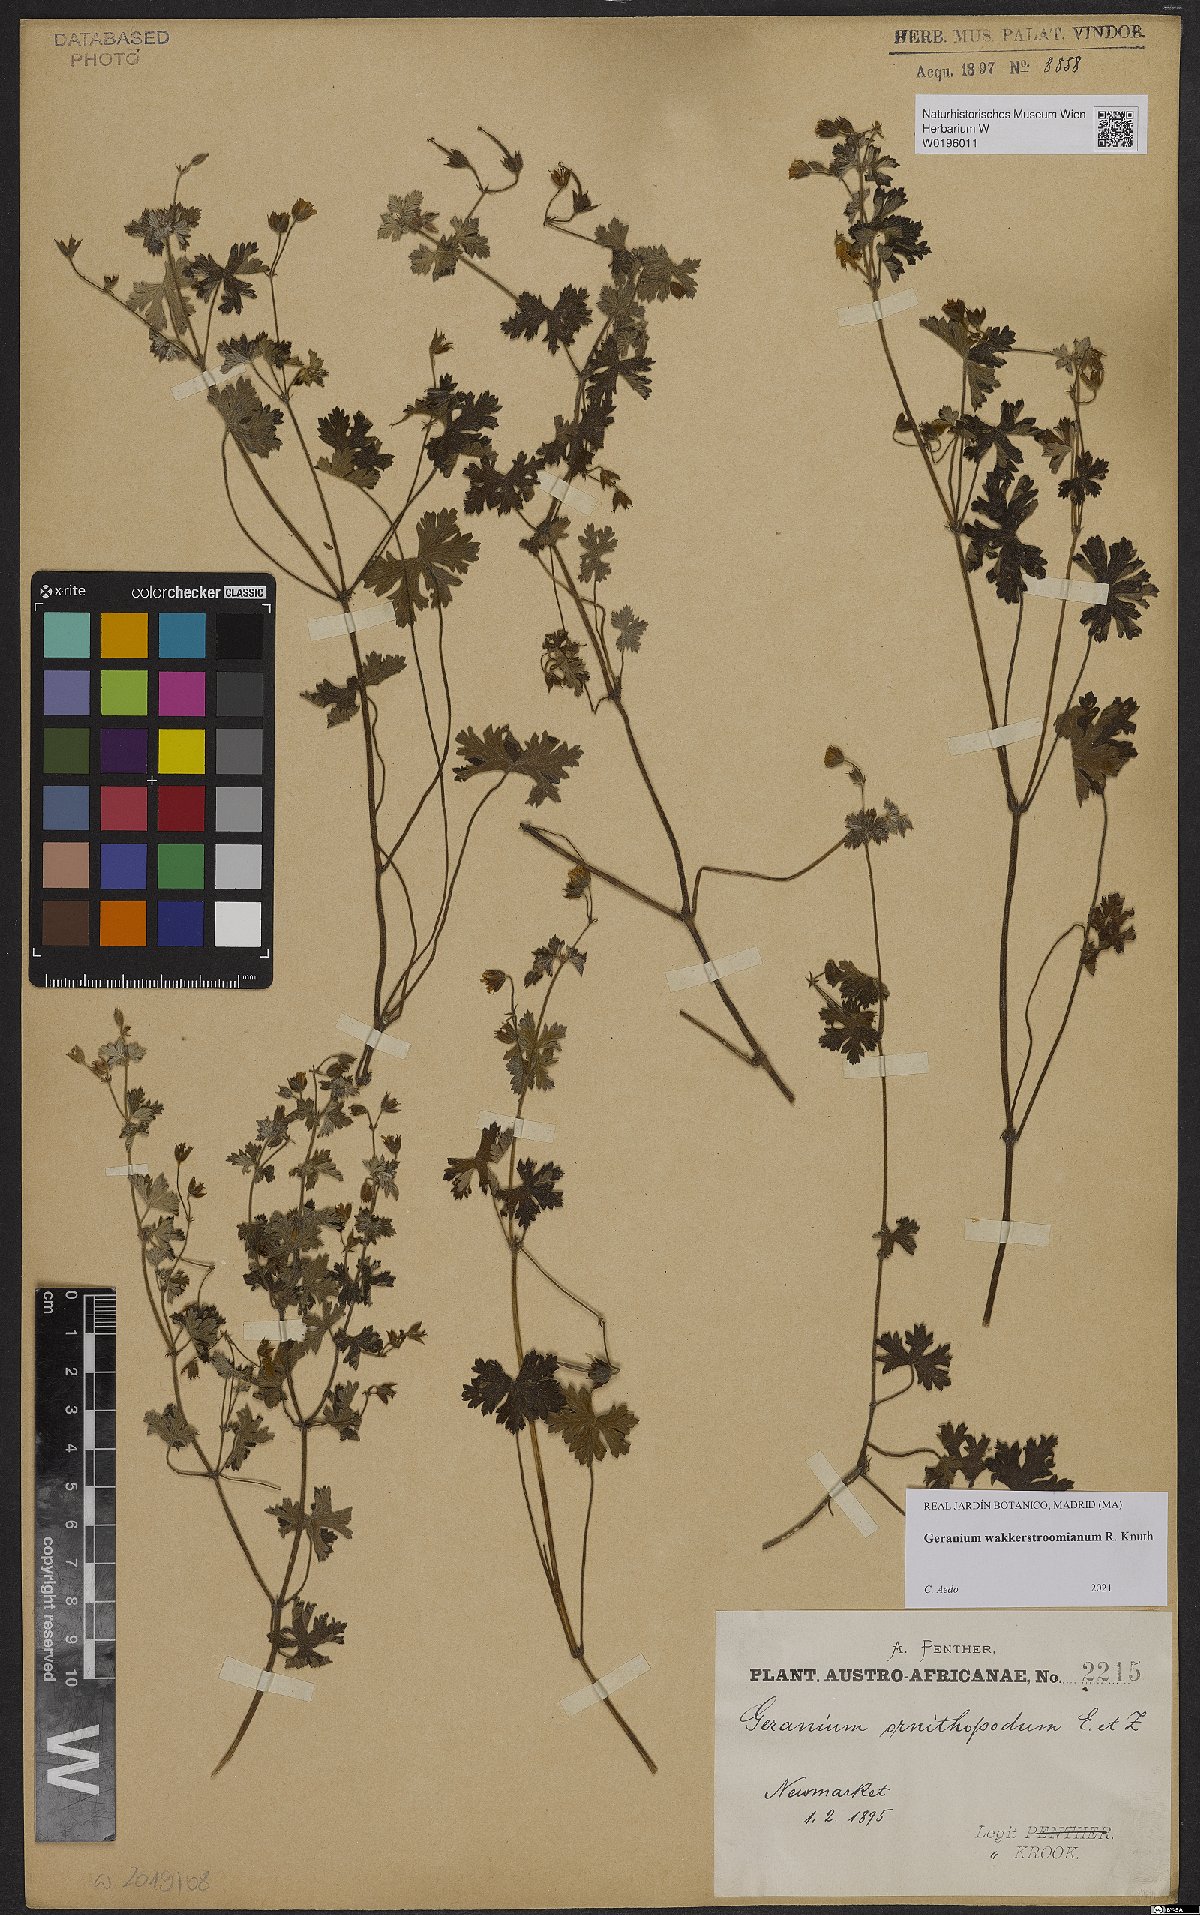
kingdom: Plantae
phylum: Tracheophyta
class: Magnoliopsida
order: Geraniales
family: Geraniaceae
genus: Geranium
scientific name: Geranium wakkerstroomianum
